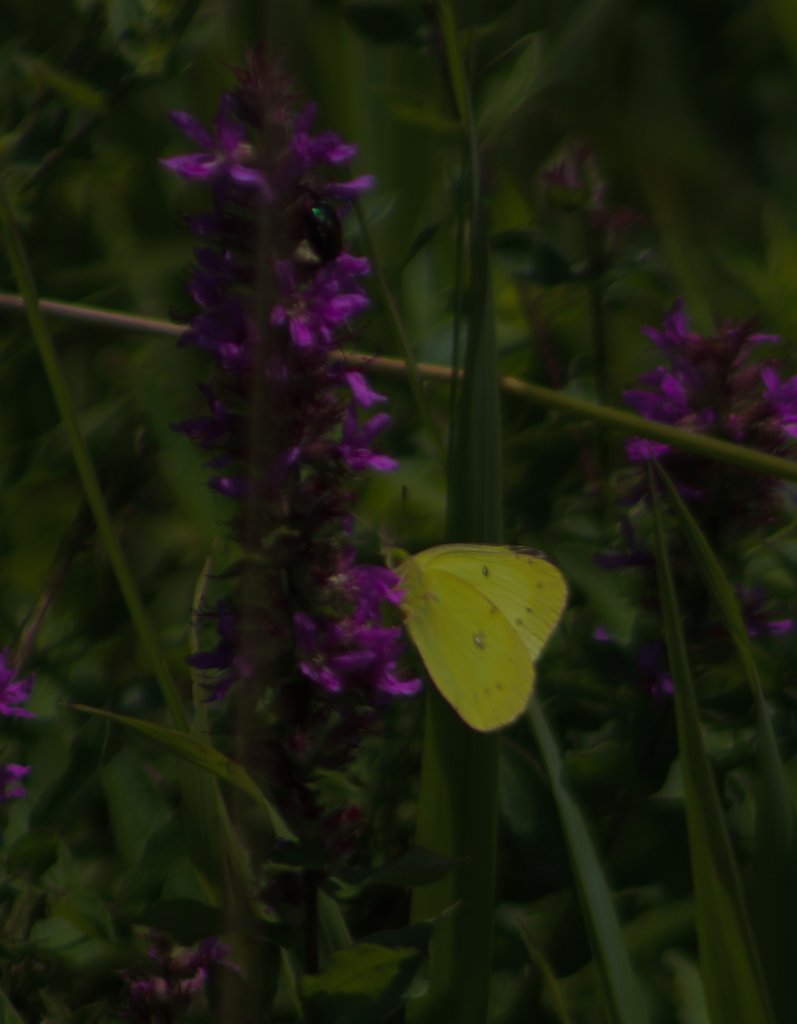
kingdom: Animalia
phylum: Arthropoda
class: Insecta
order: Lepidoptera
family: Pieridae
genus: Colias
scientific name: Colias philodice
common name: Clouded Sulphur
